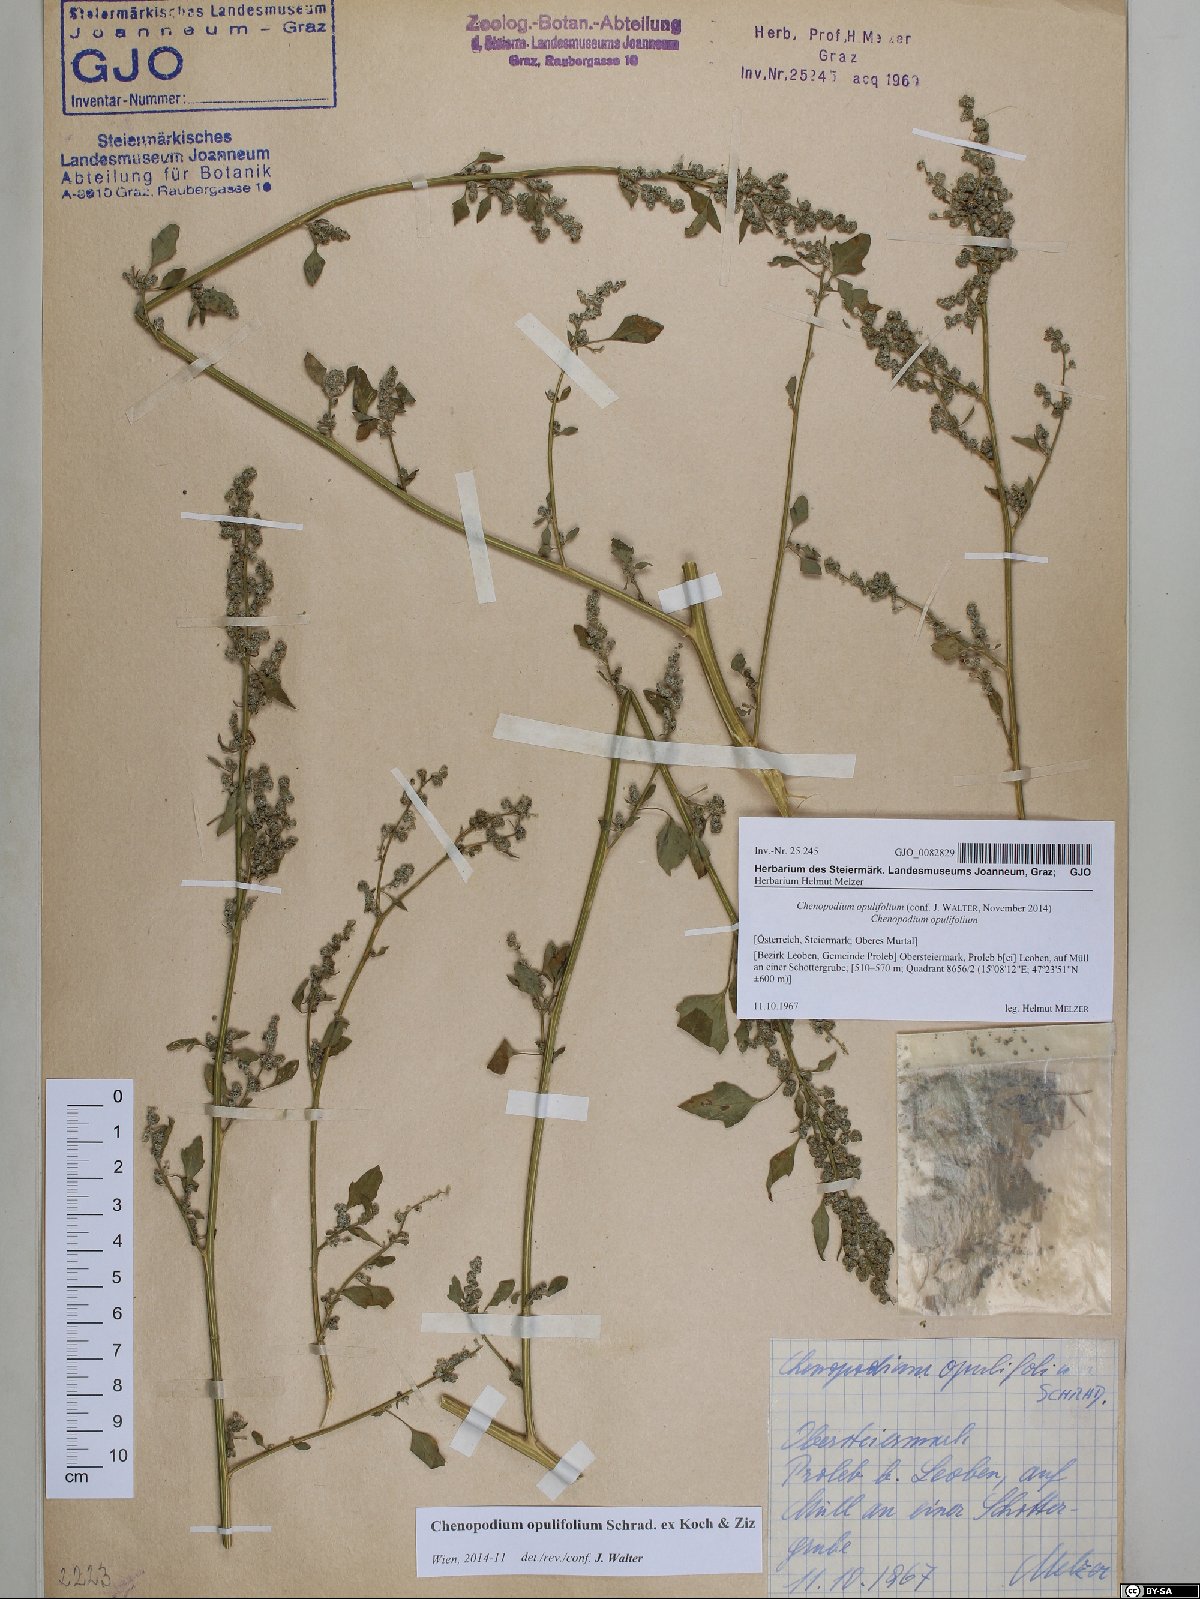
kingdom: Plantae
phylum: Tracheophyta
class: Magnoliopsida
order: Caryophyllales
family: Amaranthaceae
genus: Chenopodium
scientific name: Chenopodium opulifolium
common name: Grey goosefoot
